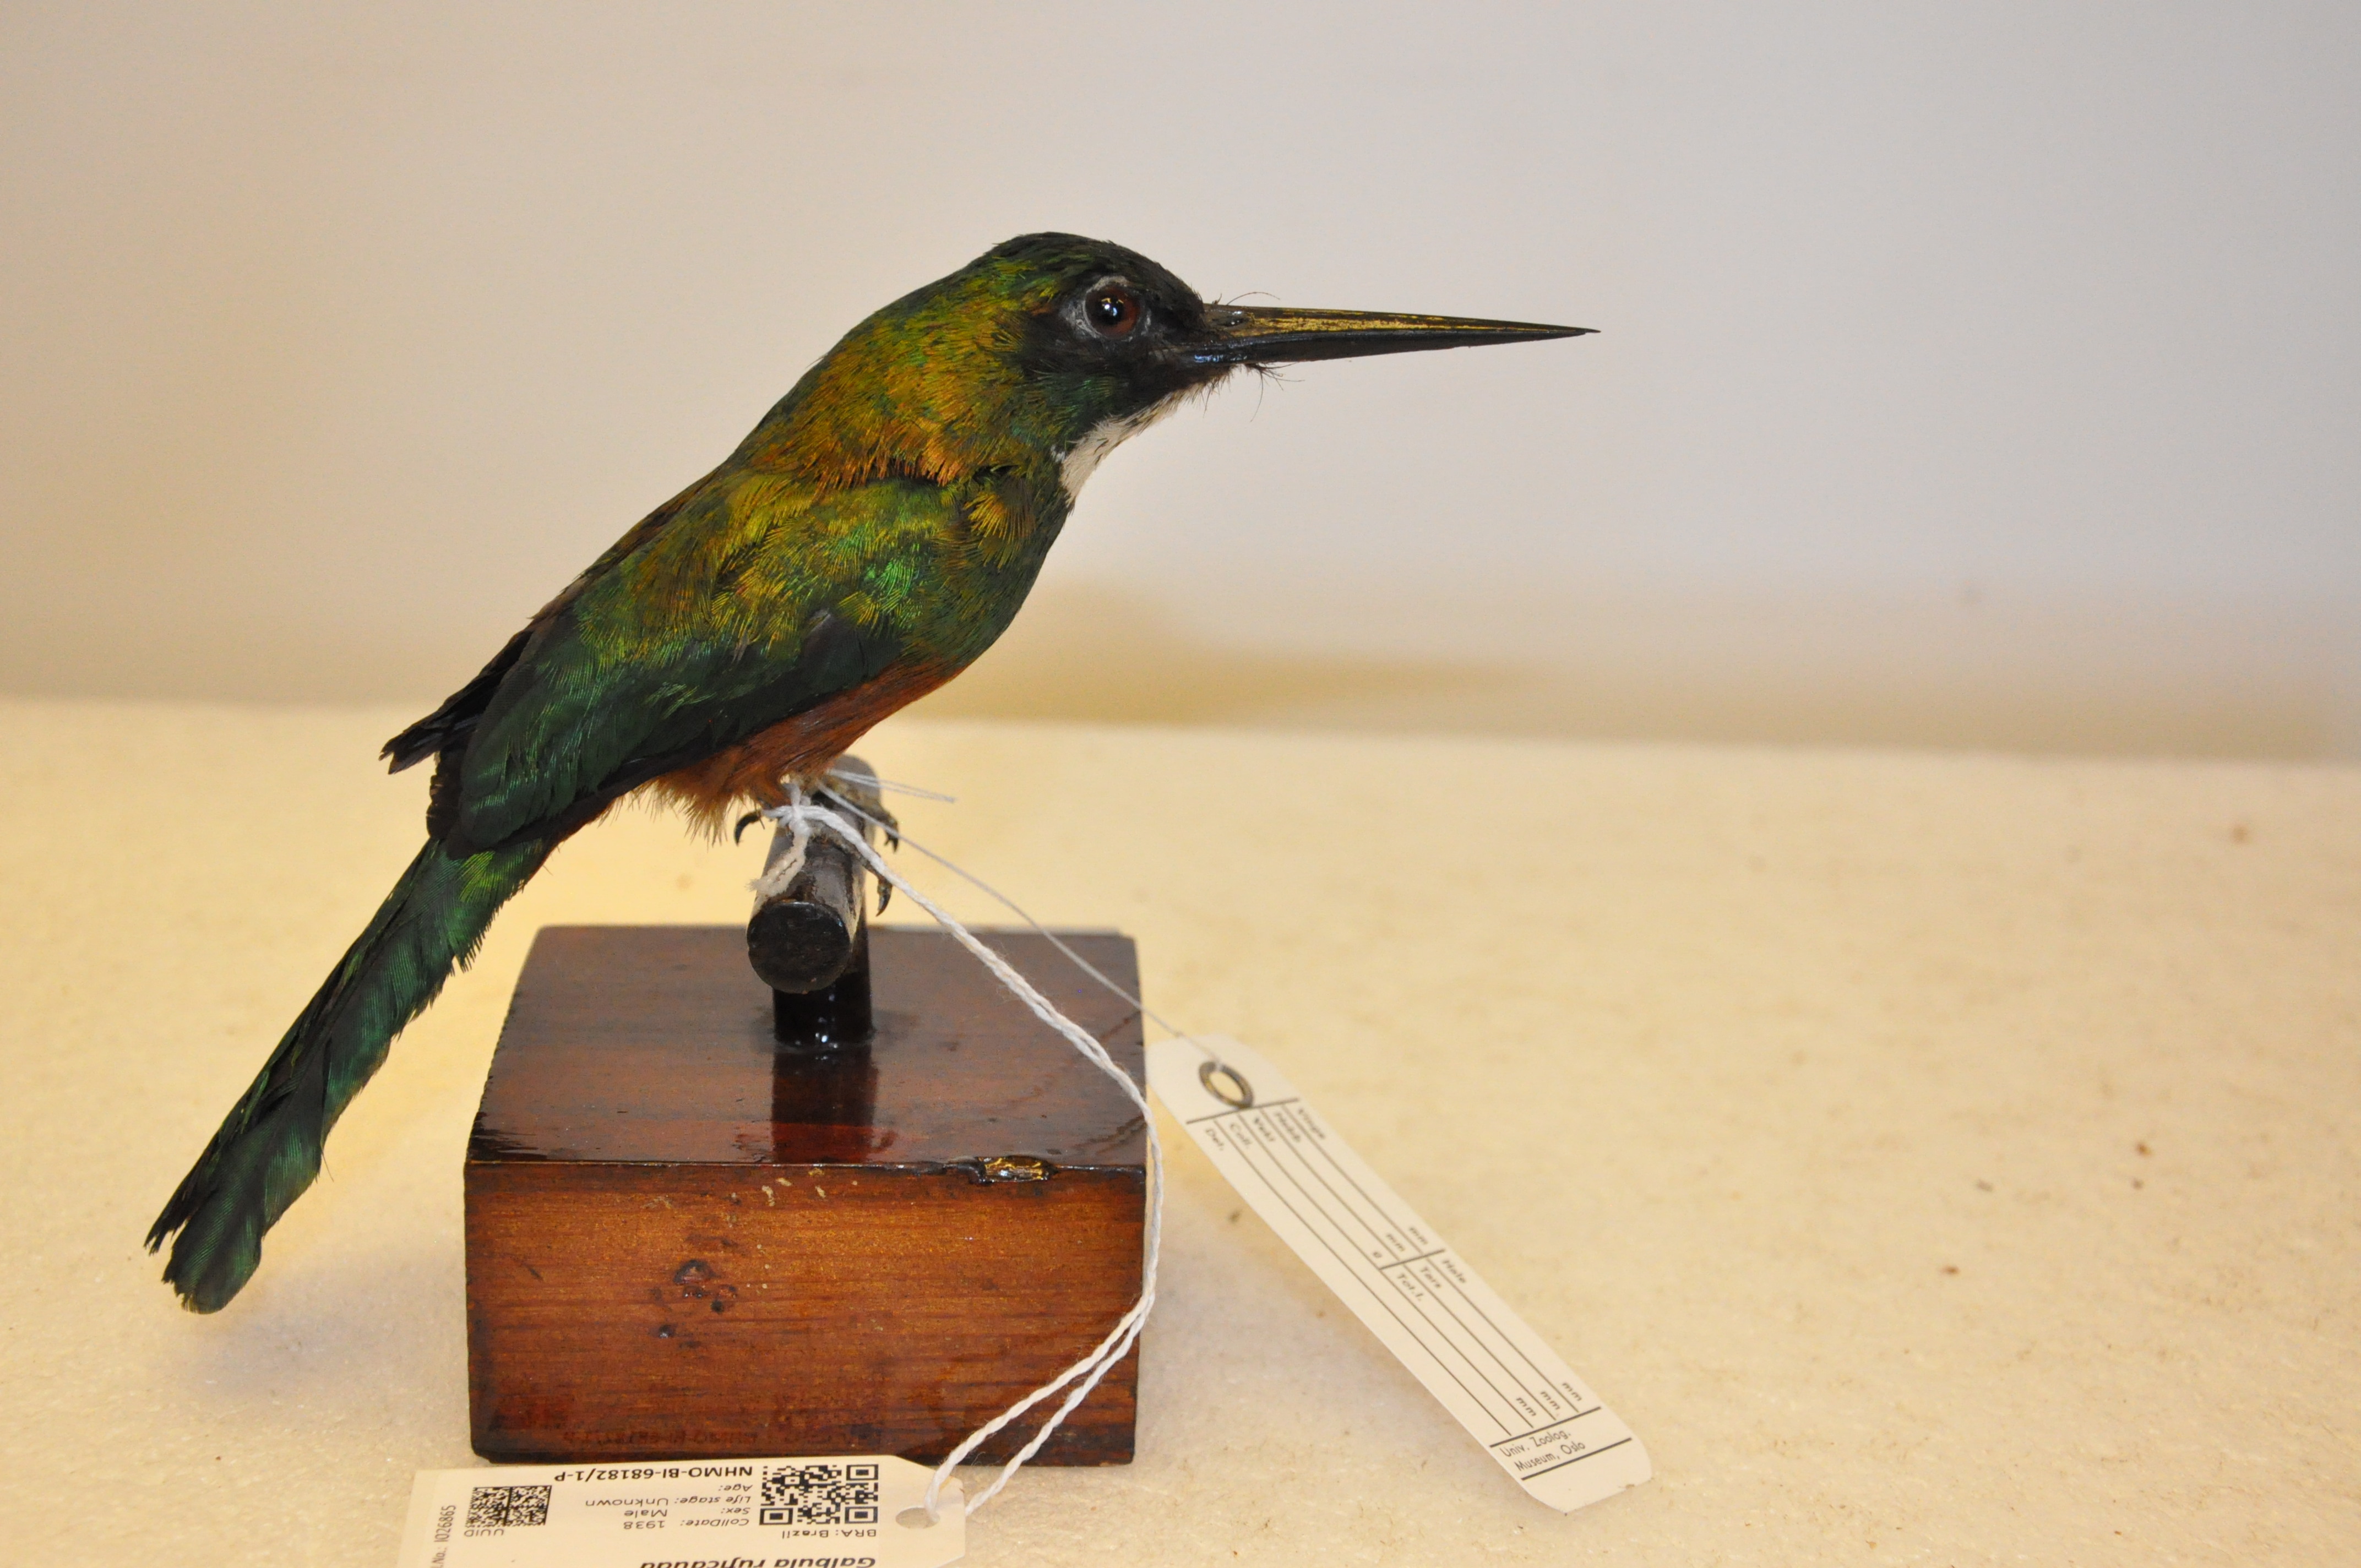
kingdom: Animalia
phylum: Chordata
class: Aves
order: Piciformes
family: Galbulidae
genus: Galbula
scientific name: Galbula ruficauda
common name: Rufous-tailed jacamar
